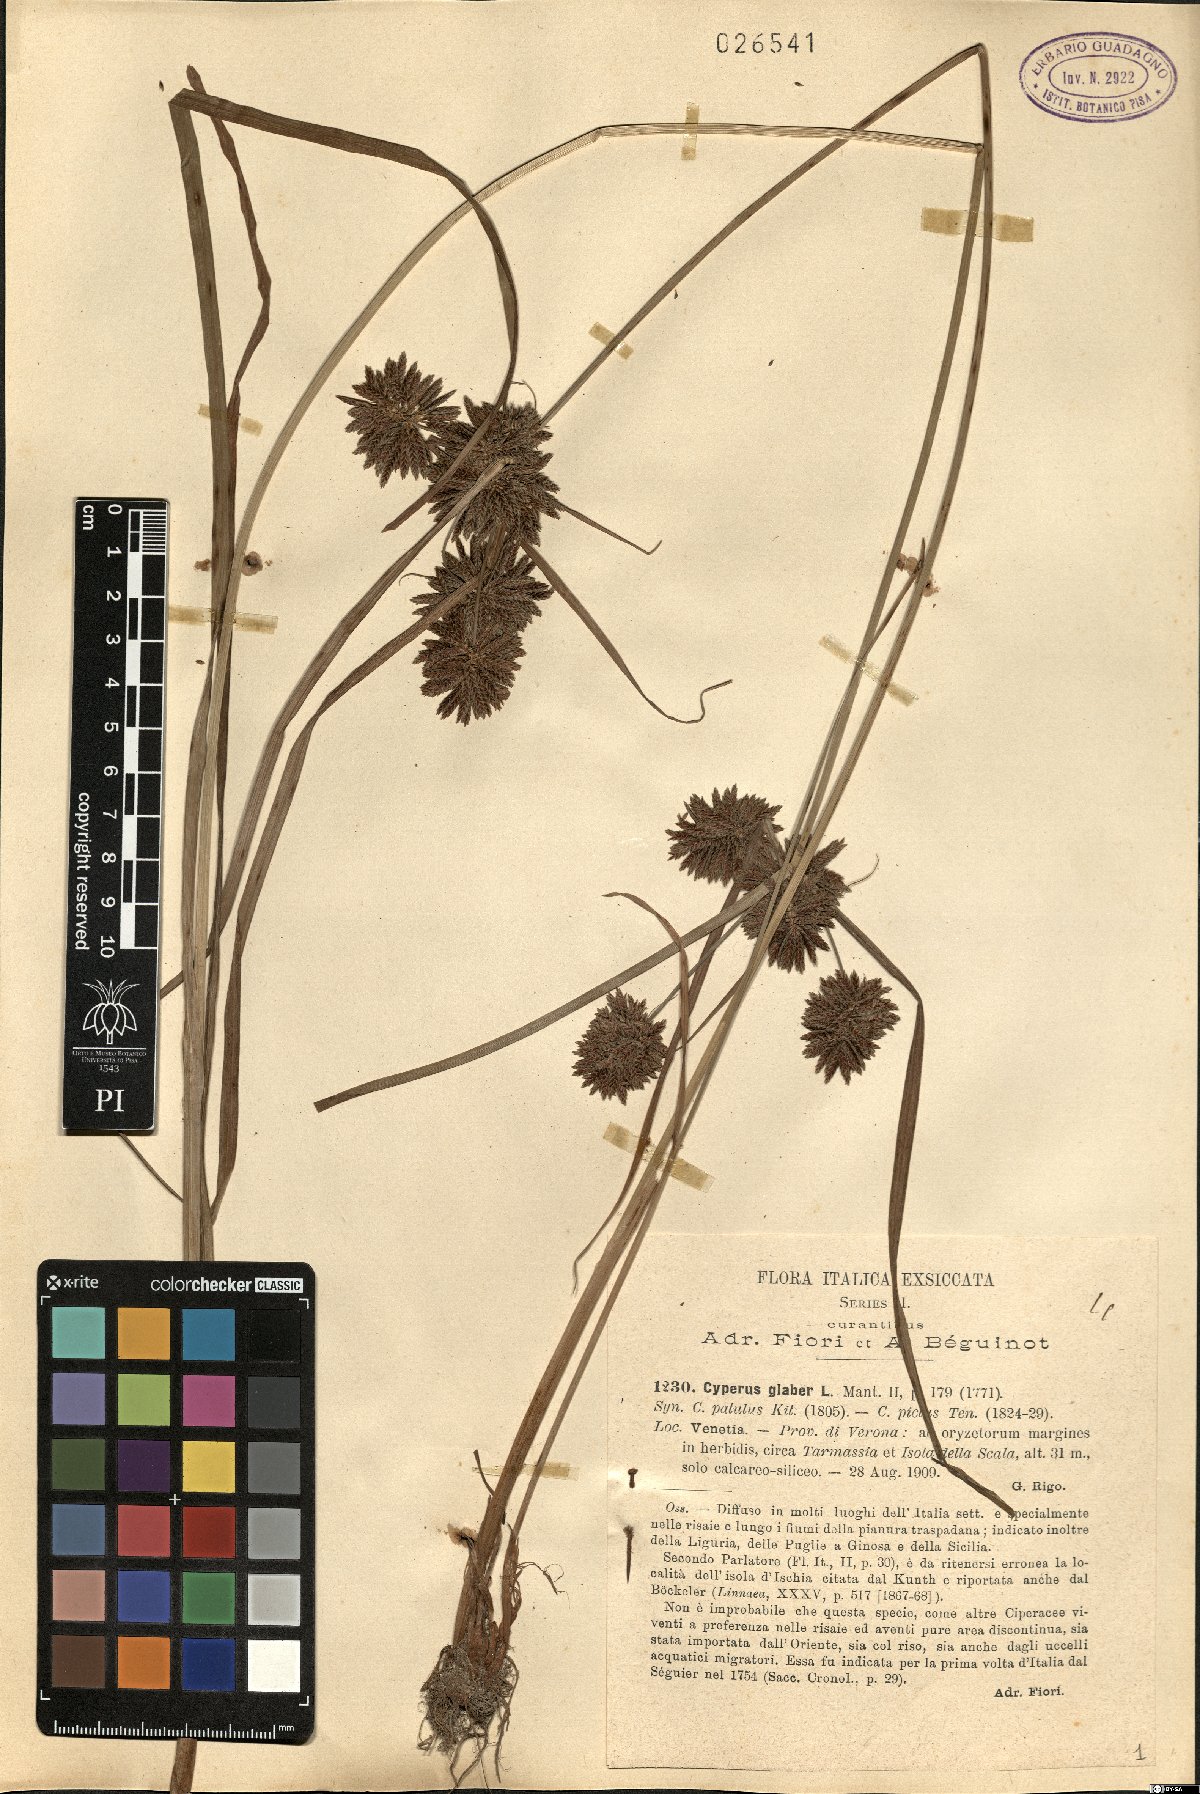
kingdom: Plantae
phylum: Tracheophyta
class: Liliopsida
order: Poales
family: Cyperaceae
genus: Cyperus
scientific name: Cyperus glaber
